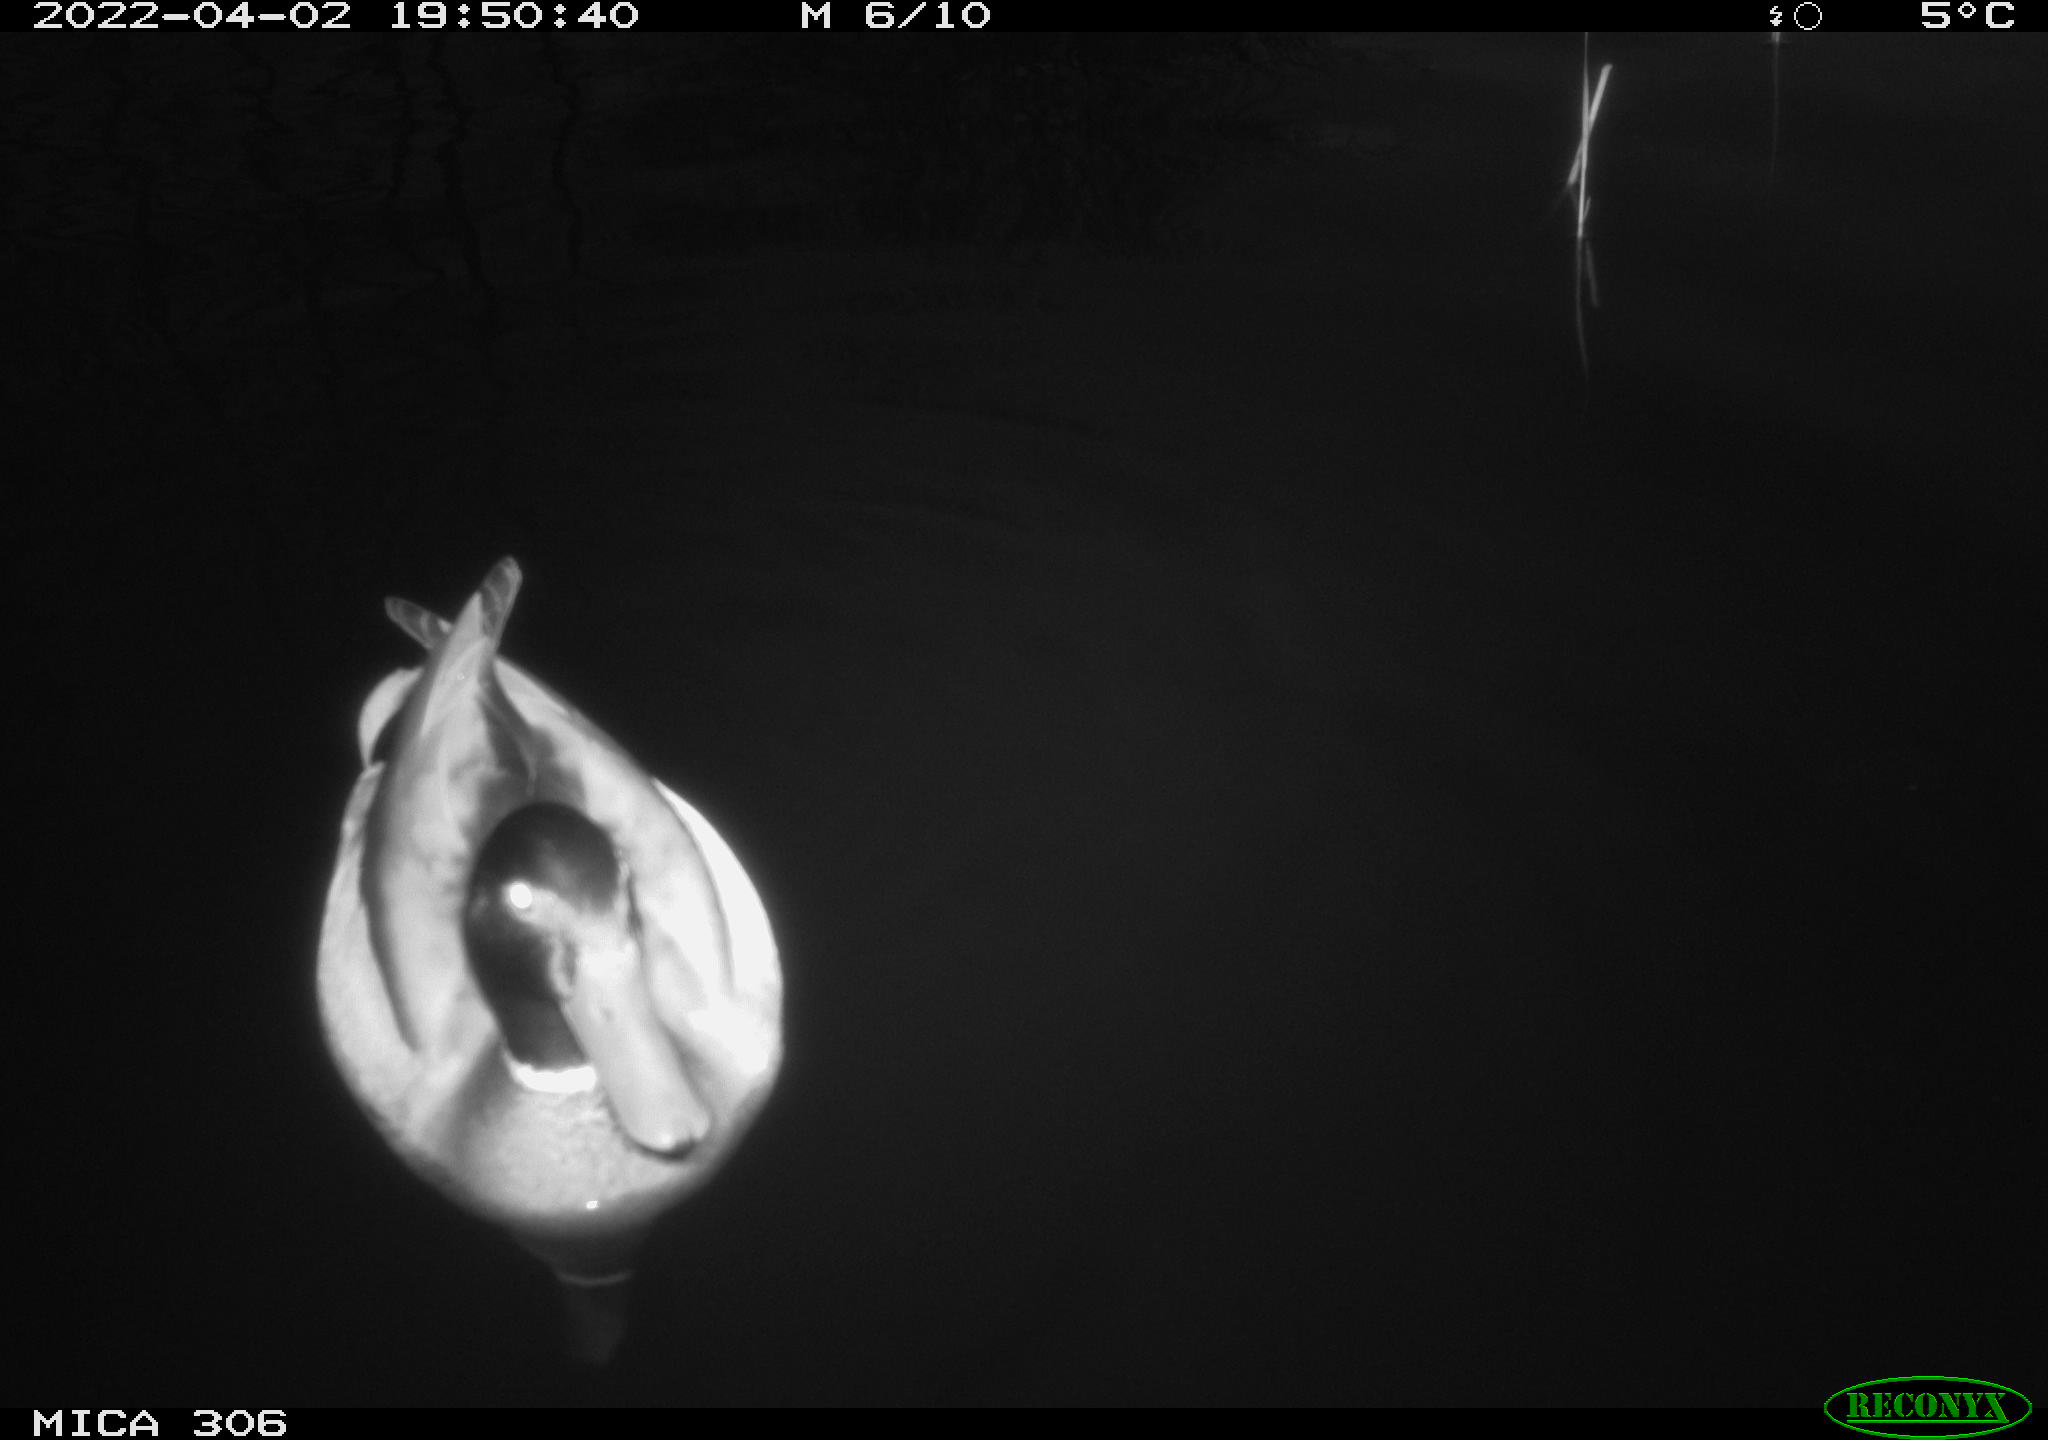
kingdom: Animalia
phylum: Chordata
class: Aves
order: Anseriformes
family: Anatidae
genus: Anas
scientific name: Anas
